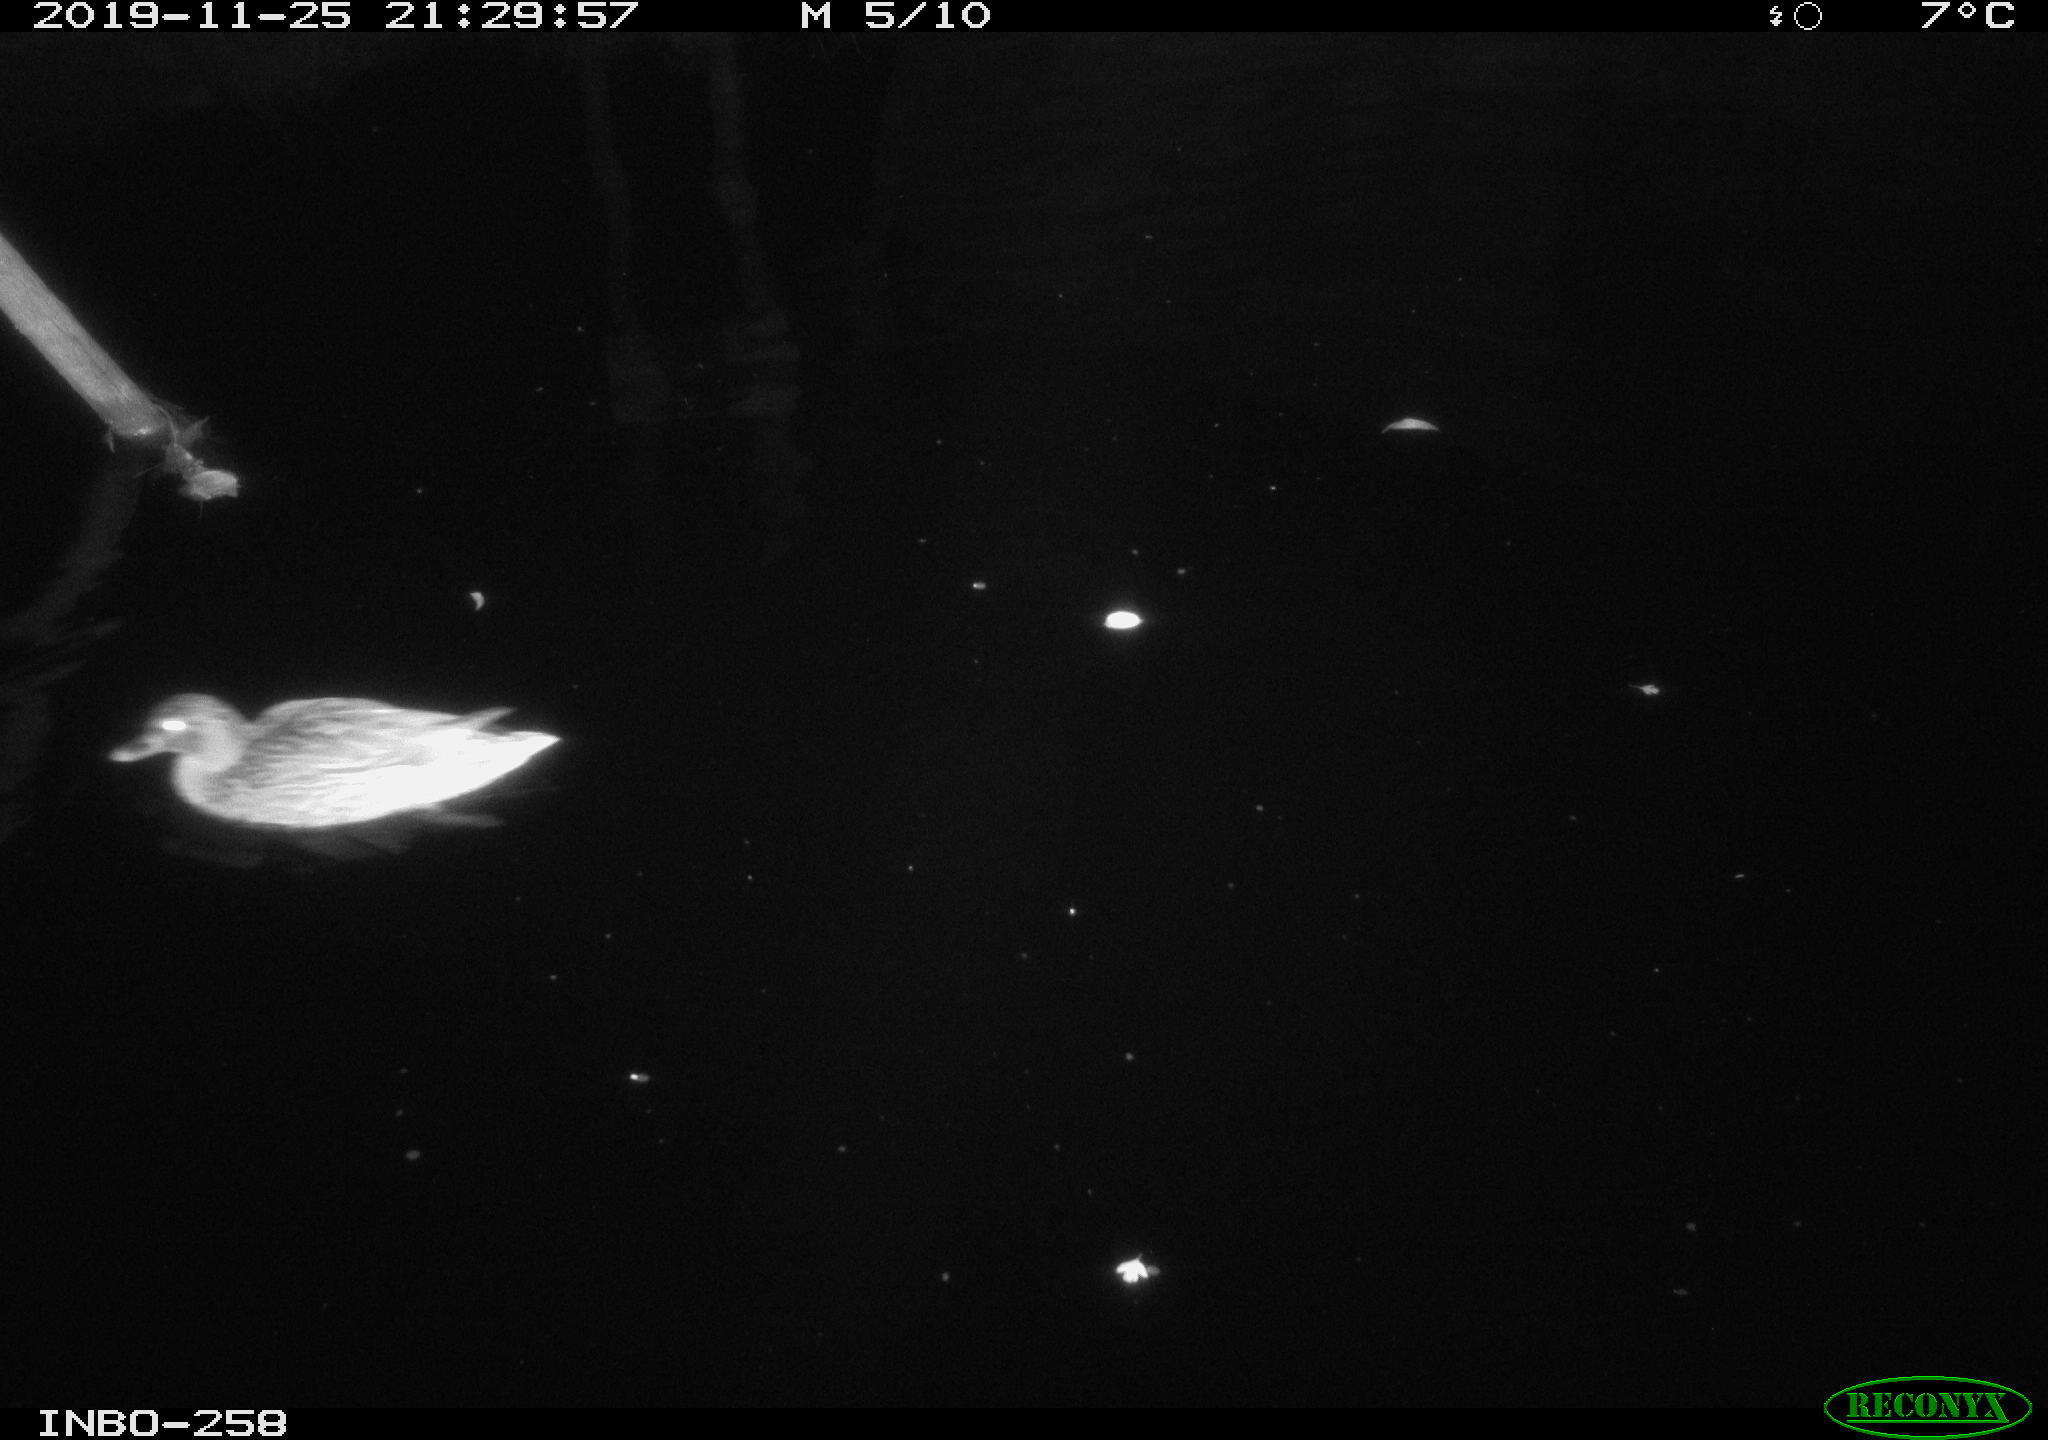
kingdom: Animalia
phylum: Chordata
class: Aves
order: Anseriformes
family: Anatidae
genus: Anas
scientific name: Anas platyrhynchos
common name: Mallard
